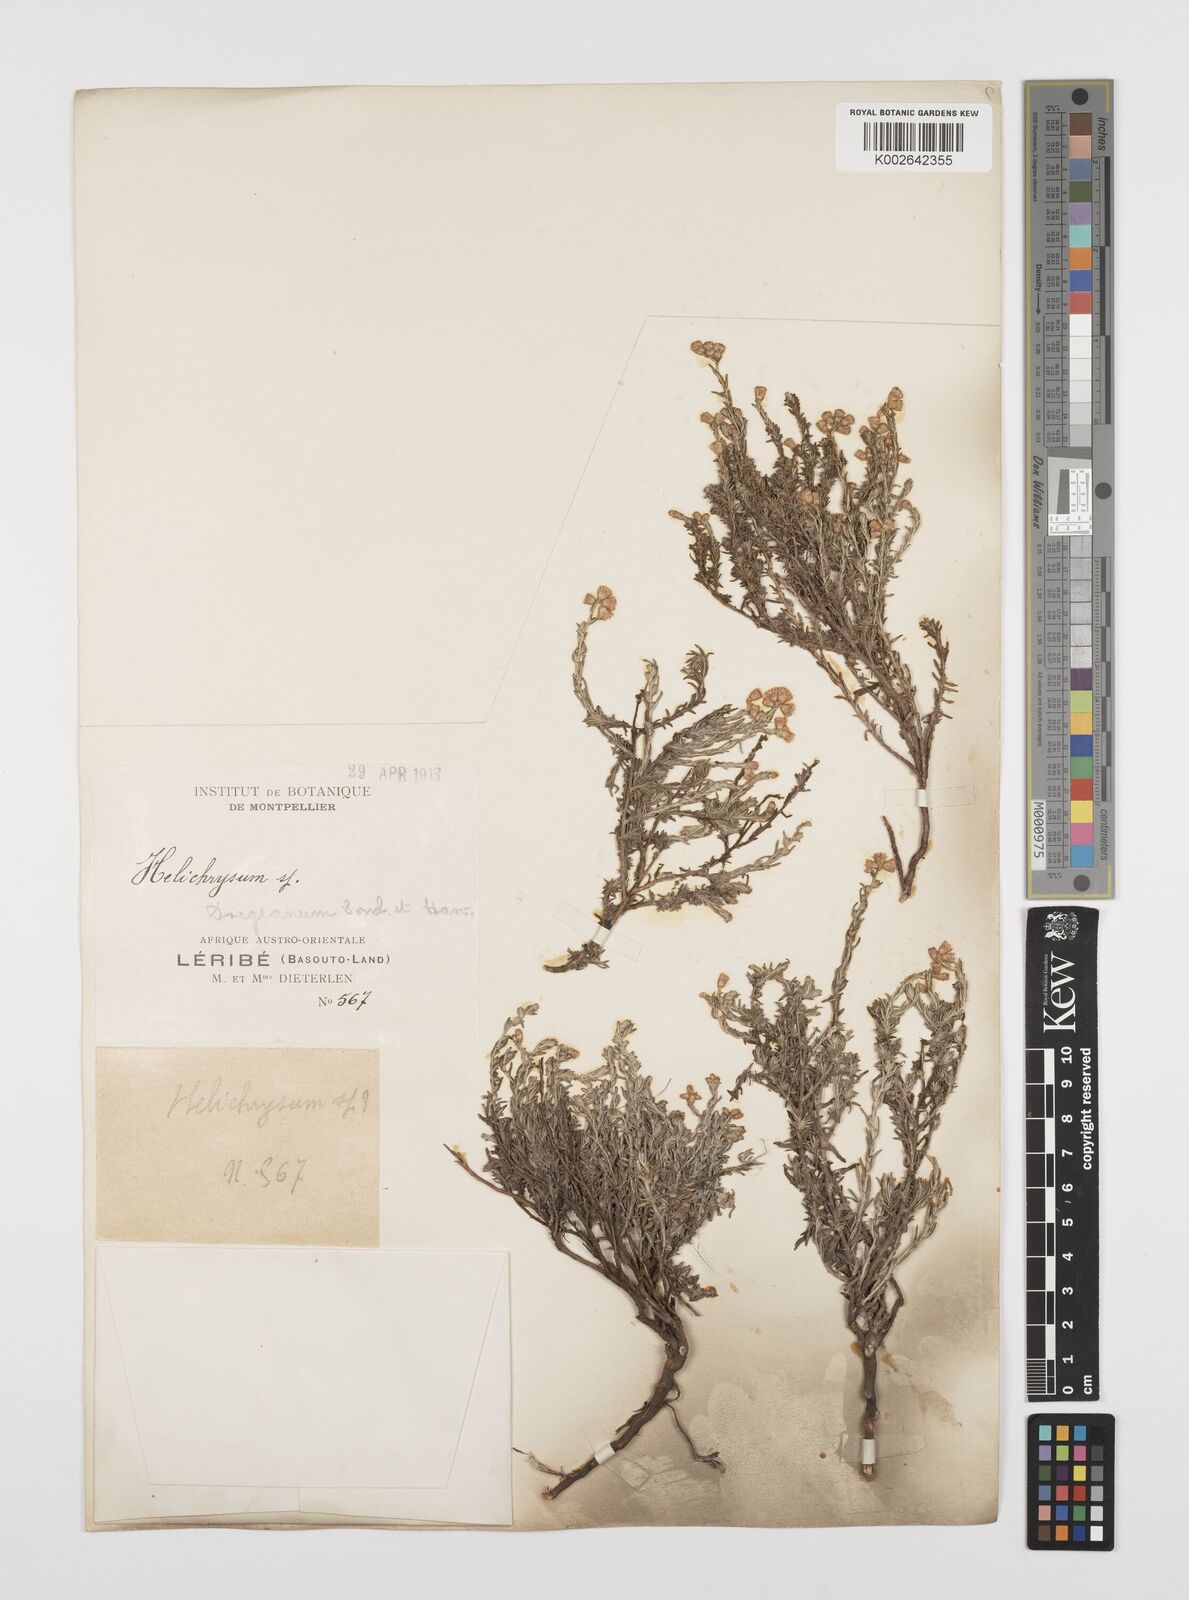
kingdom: Plantae
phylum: Tracheophyta
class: Magnoliopsida
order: Asterales
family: Asteraceae
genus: Helichrysum
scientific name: Helichrysum dregeanum
